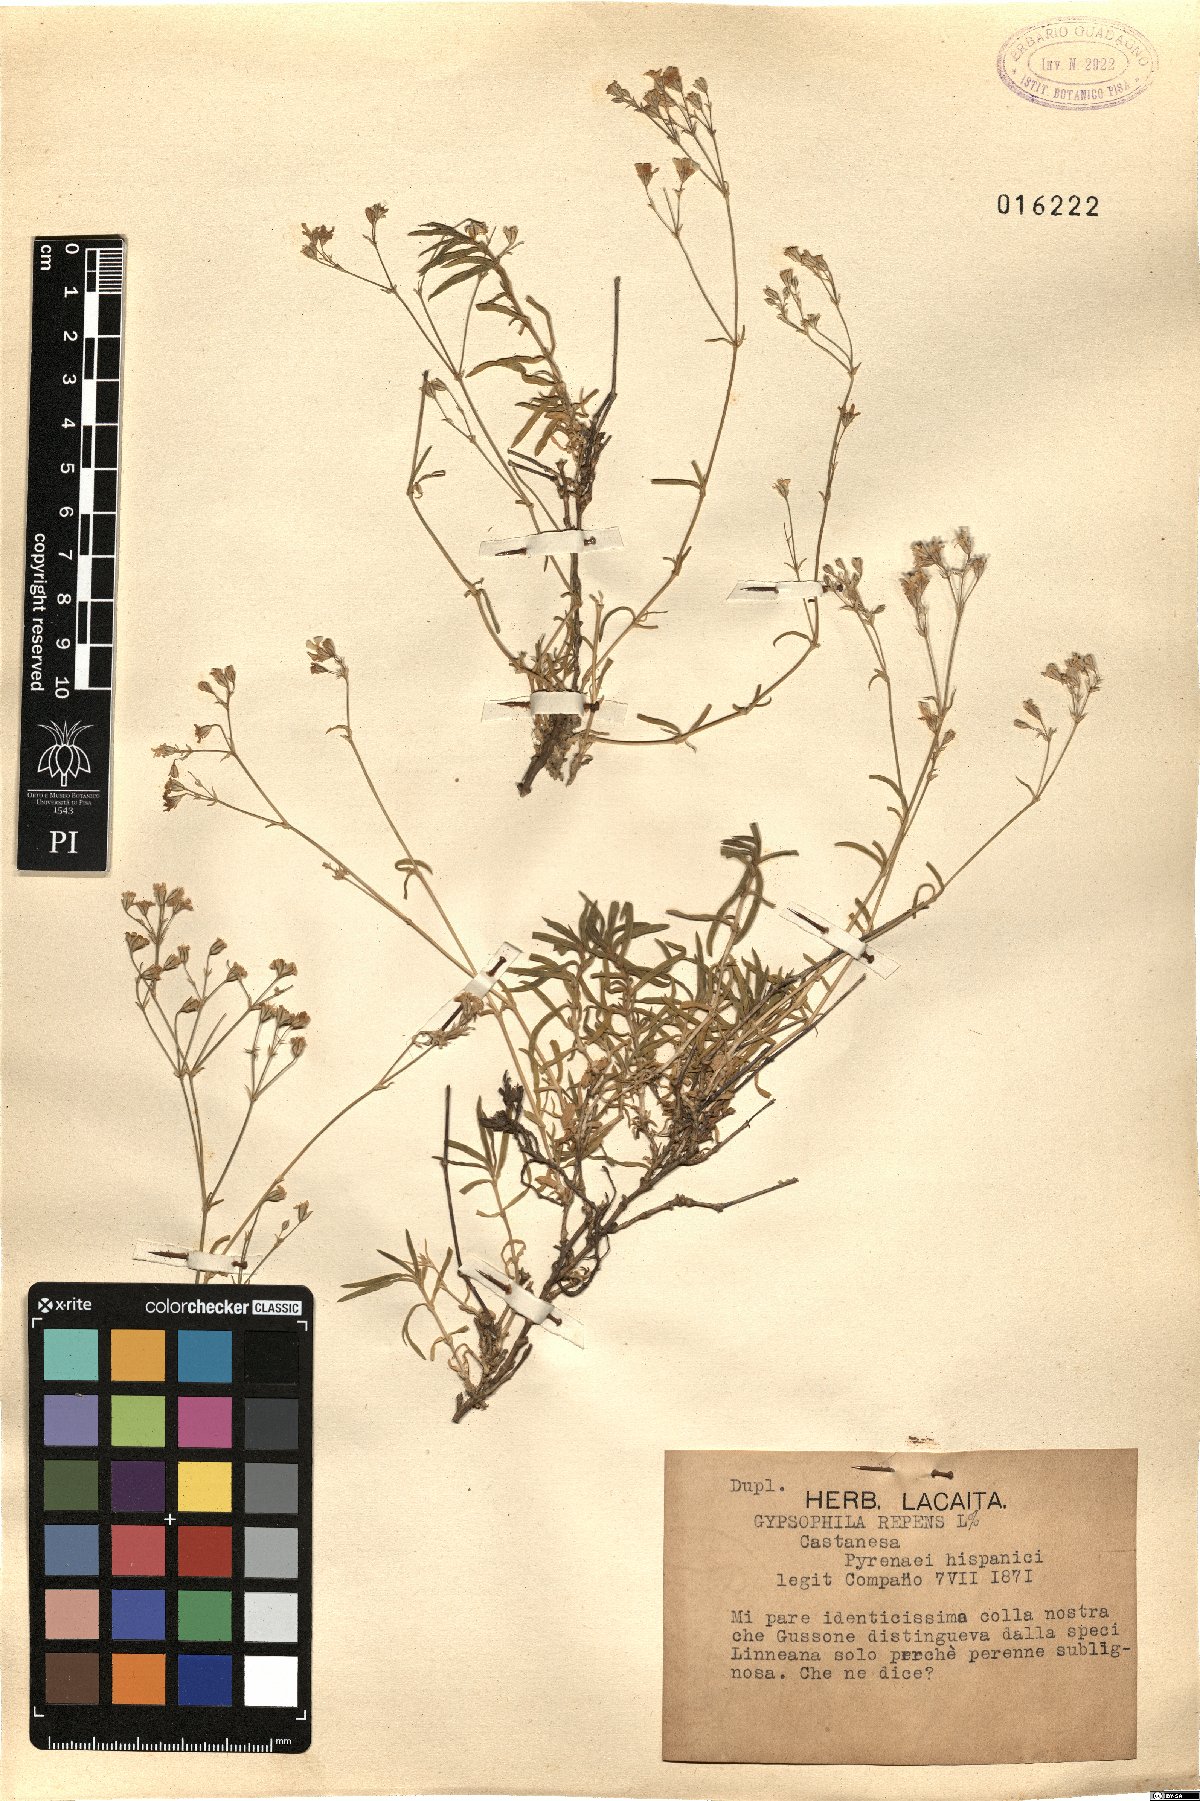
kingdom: Plantae
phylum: Tracheophyta
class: Magnoliopsida
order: Caryophyllales
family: Caryophyllaceae
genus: Gypsophila
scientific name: Gypsophila repens
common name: Creeping baby's-breath
